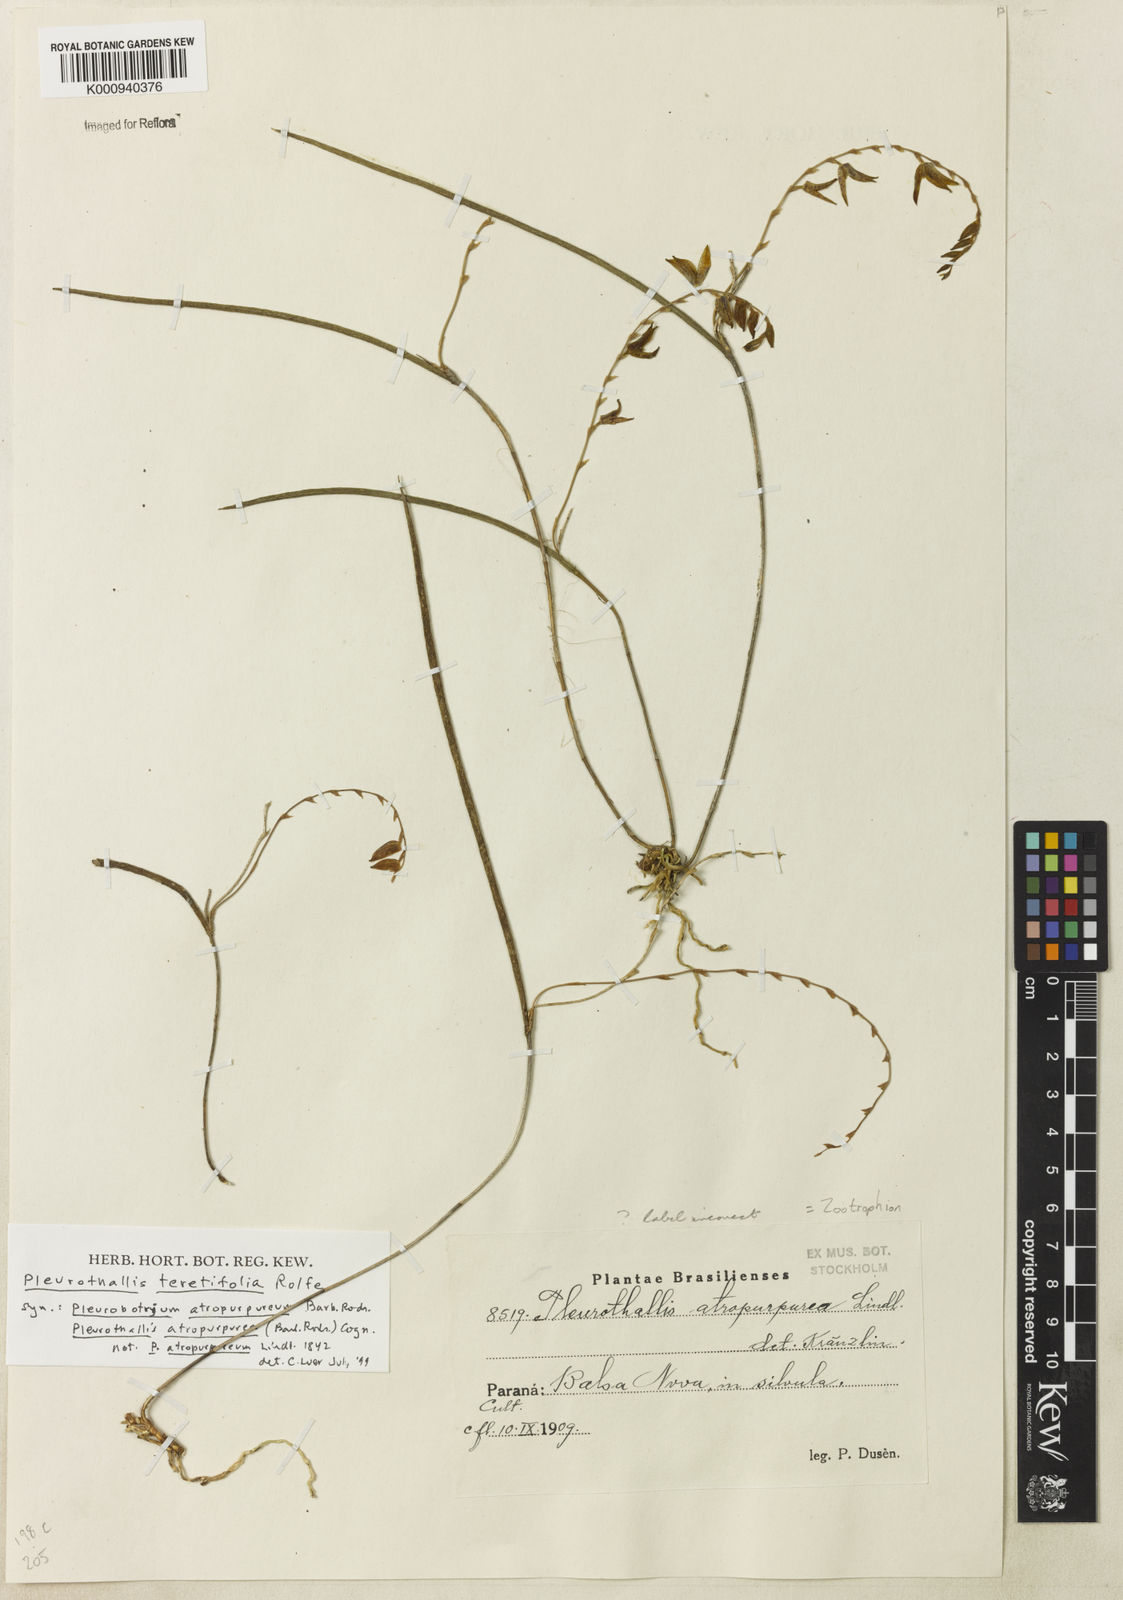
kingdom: Plantae
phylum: Tracheophyta
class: Liliopsida
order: Asparagales
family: Orchidaceae
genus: Acianthera
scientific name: Acianthera hatschbachii
